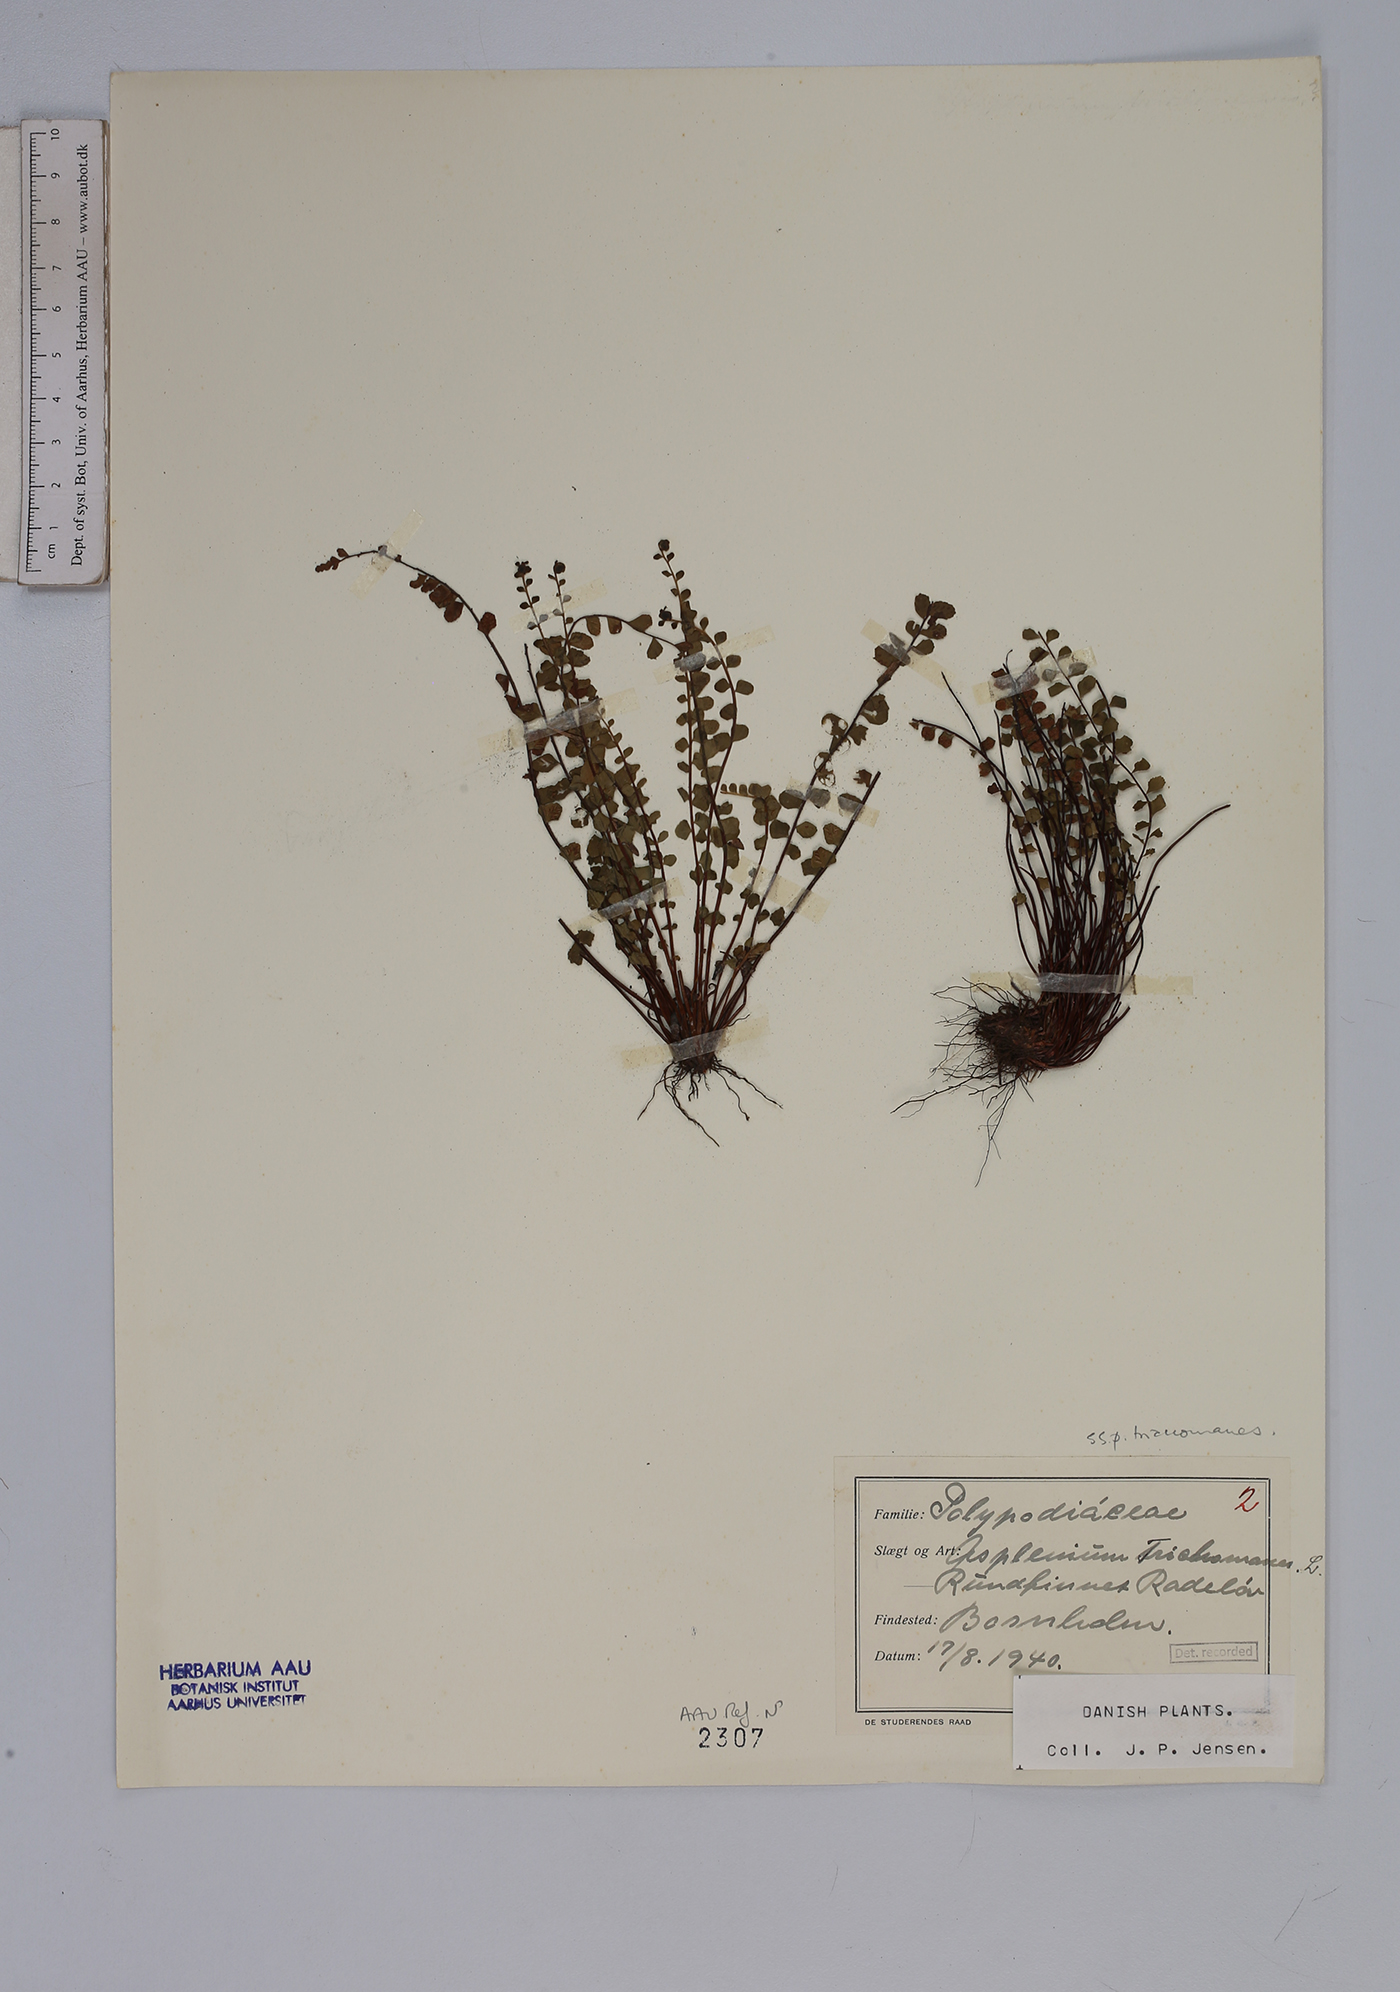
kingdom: Plantae
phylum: Tracheophyta
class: Polypodiopsida
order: Polypodiales
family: Aspleniaceae
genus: Asplenium
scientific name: Asplenium trichomanes
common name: Maidenhair spleenwort
